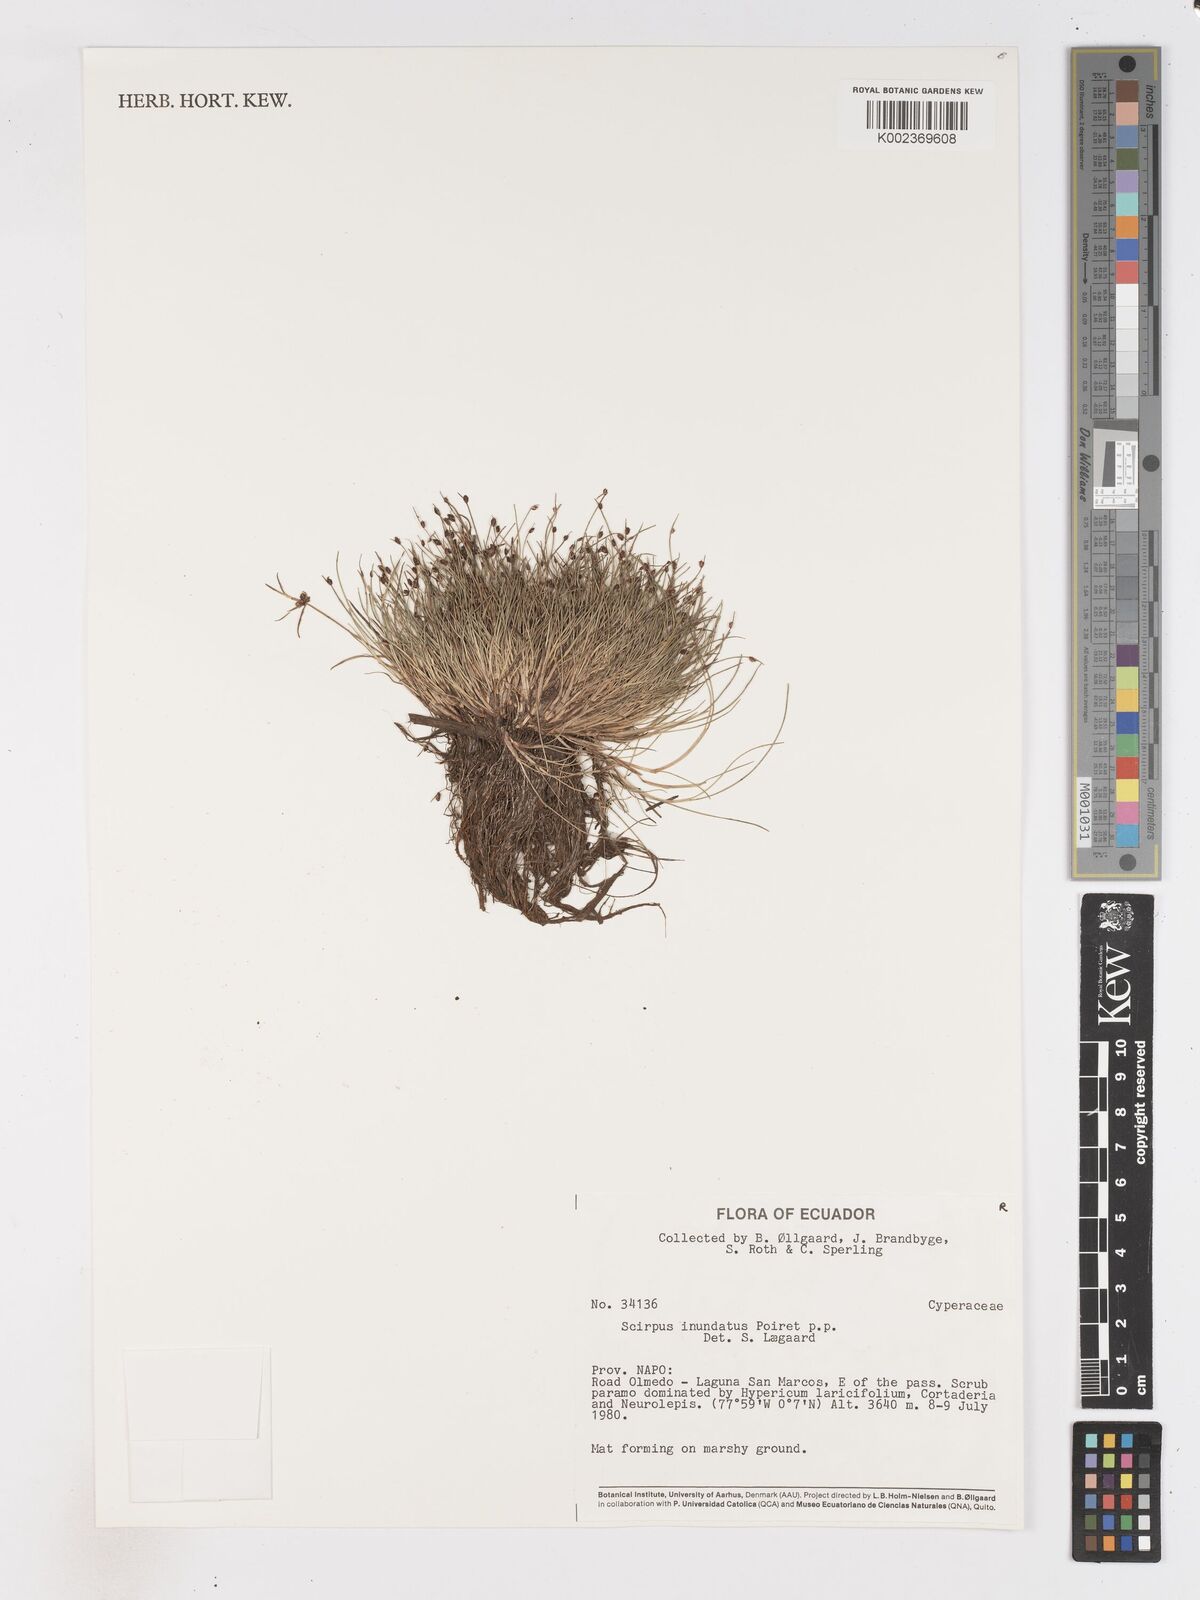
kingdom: Plantae
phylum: Tracheophyta
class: Liliopsida
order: Poales
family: Cyperaceae
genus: Isolepis
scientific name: Isolepis cernua
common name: Slender club-rush
